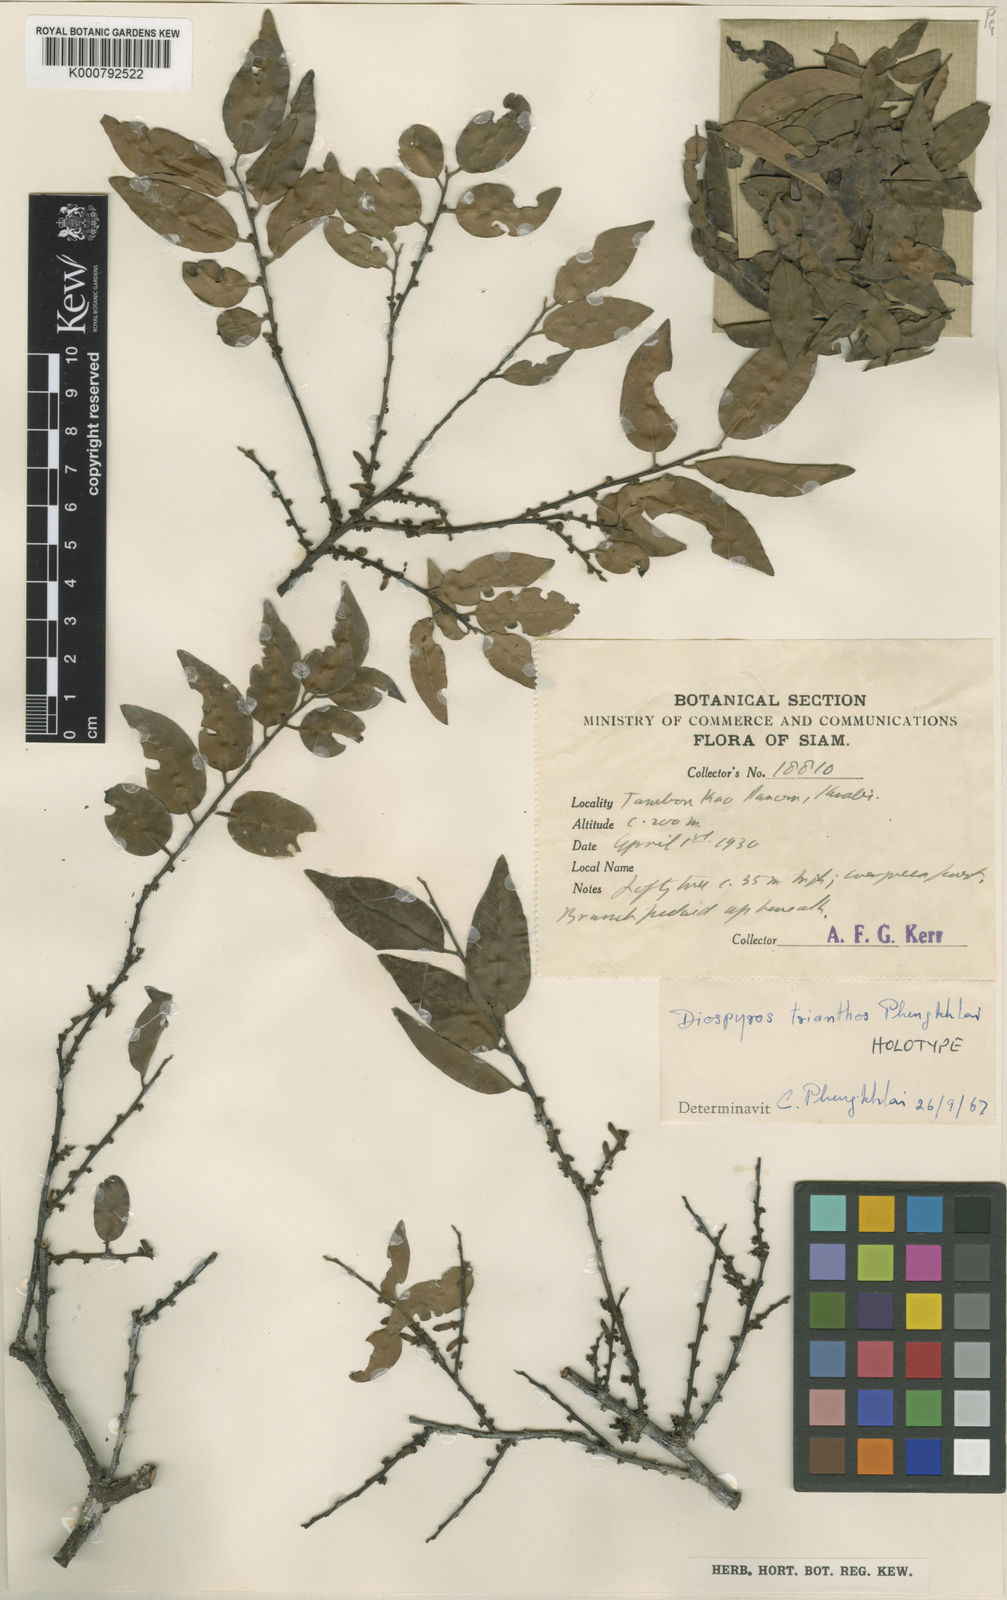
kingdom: Plantae
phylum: Tracheophyta
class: Magnoliopsida
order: Ericales
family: Ebenaceae
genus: Diospyros
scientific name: Diospyros trianthos
